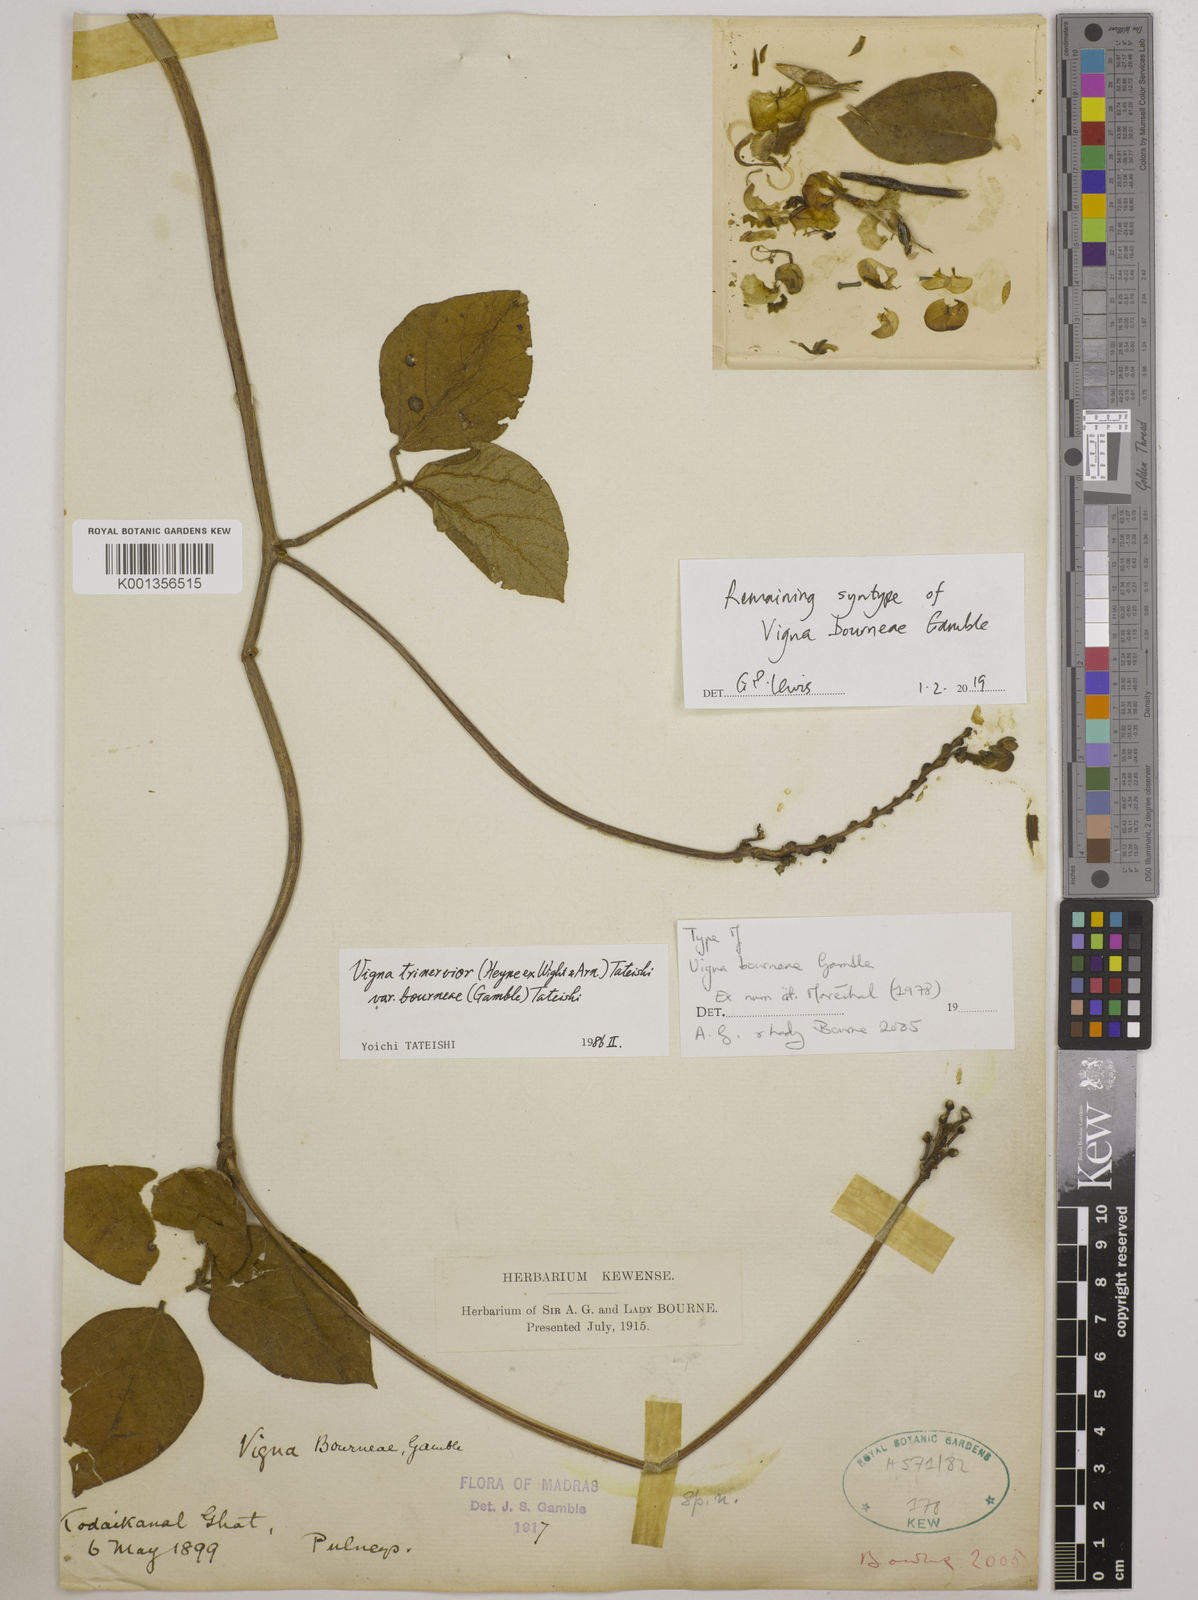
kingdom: Plantae
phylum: Tracheophyta
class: Magnoliopsida
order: Fabales
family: Fabaceae
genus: Vigna
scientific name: Vigna
